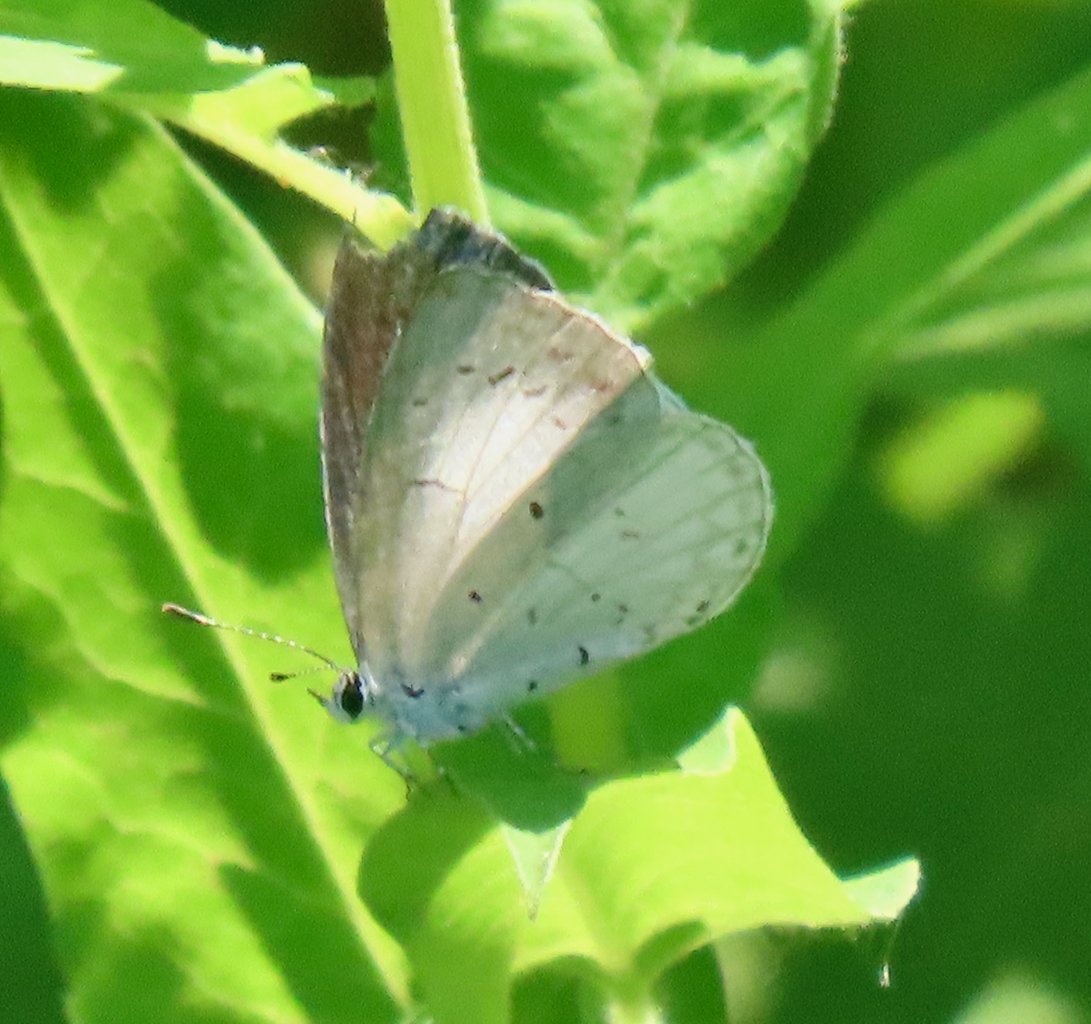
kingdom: Animalia
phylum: Arthropoda
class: Insecta
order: Lepidoptera
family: Lycaenidae
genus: Cyaniris
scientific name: Cyaniris neglecta
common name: Summer Azure
